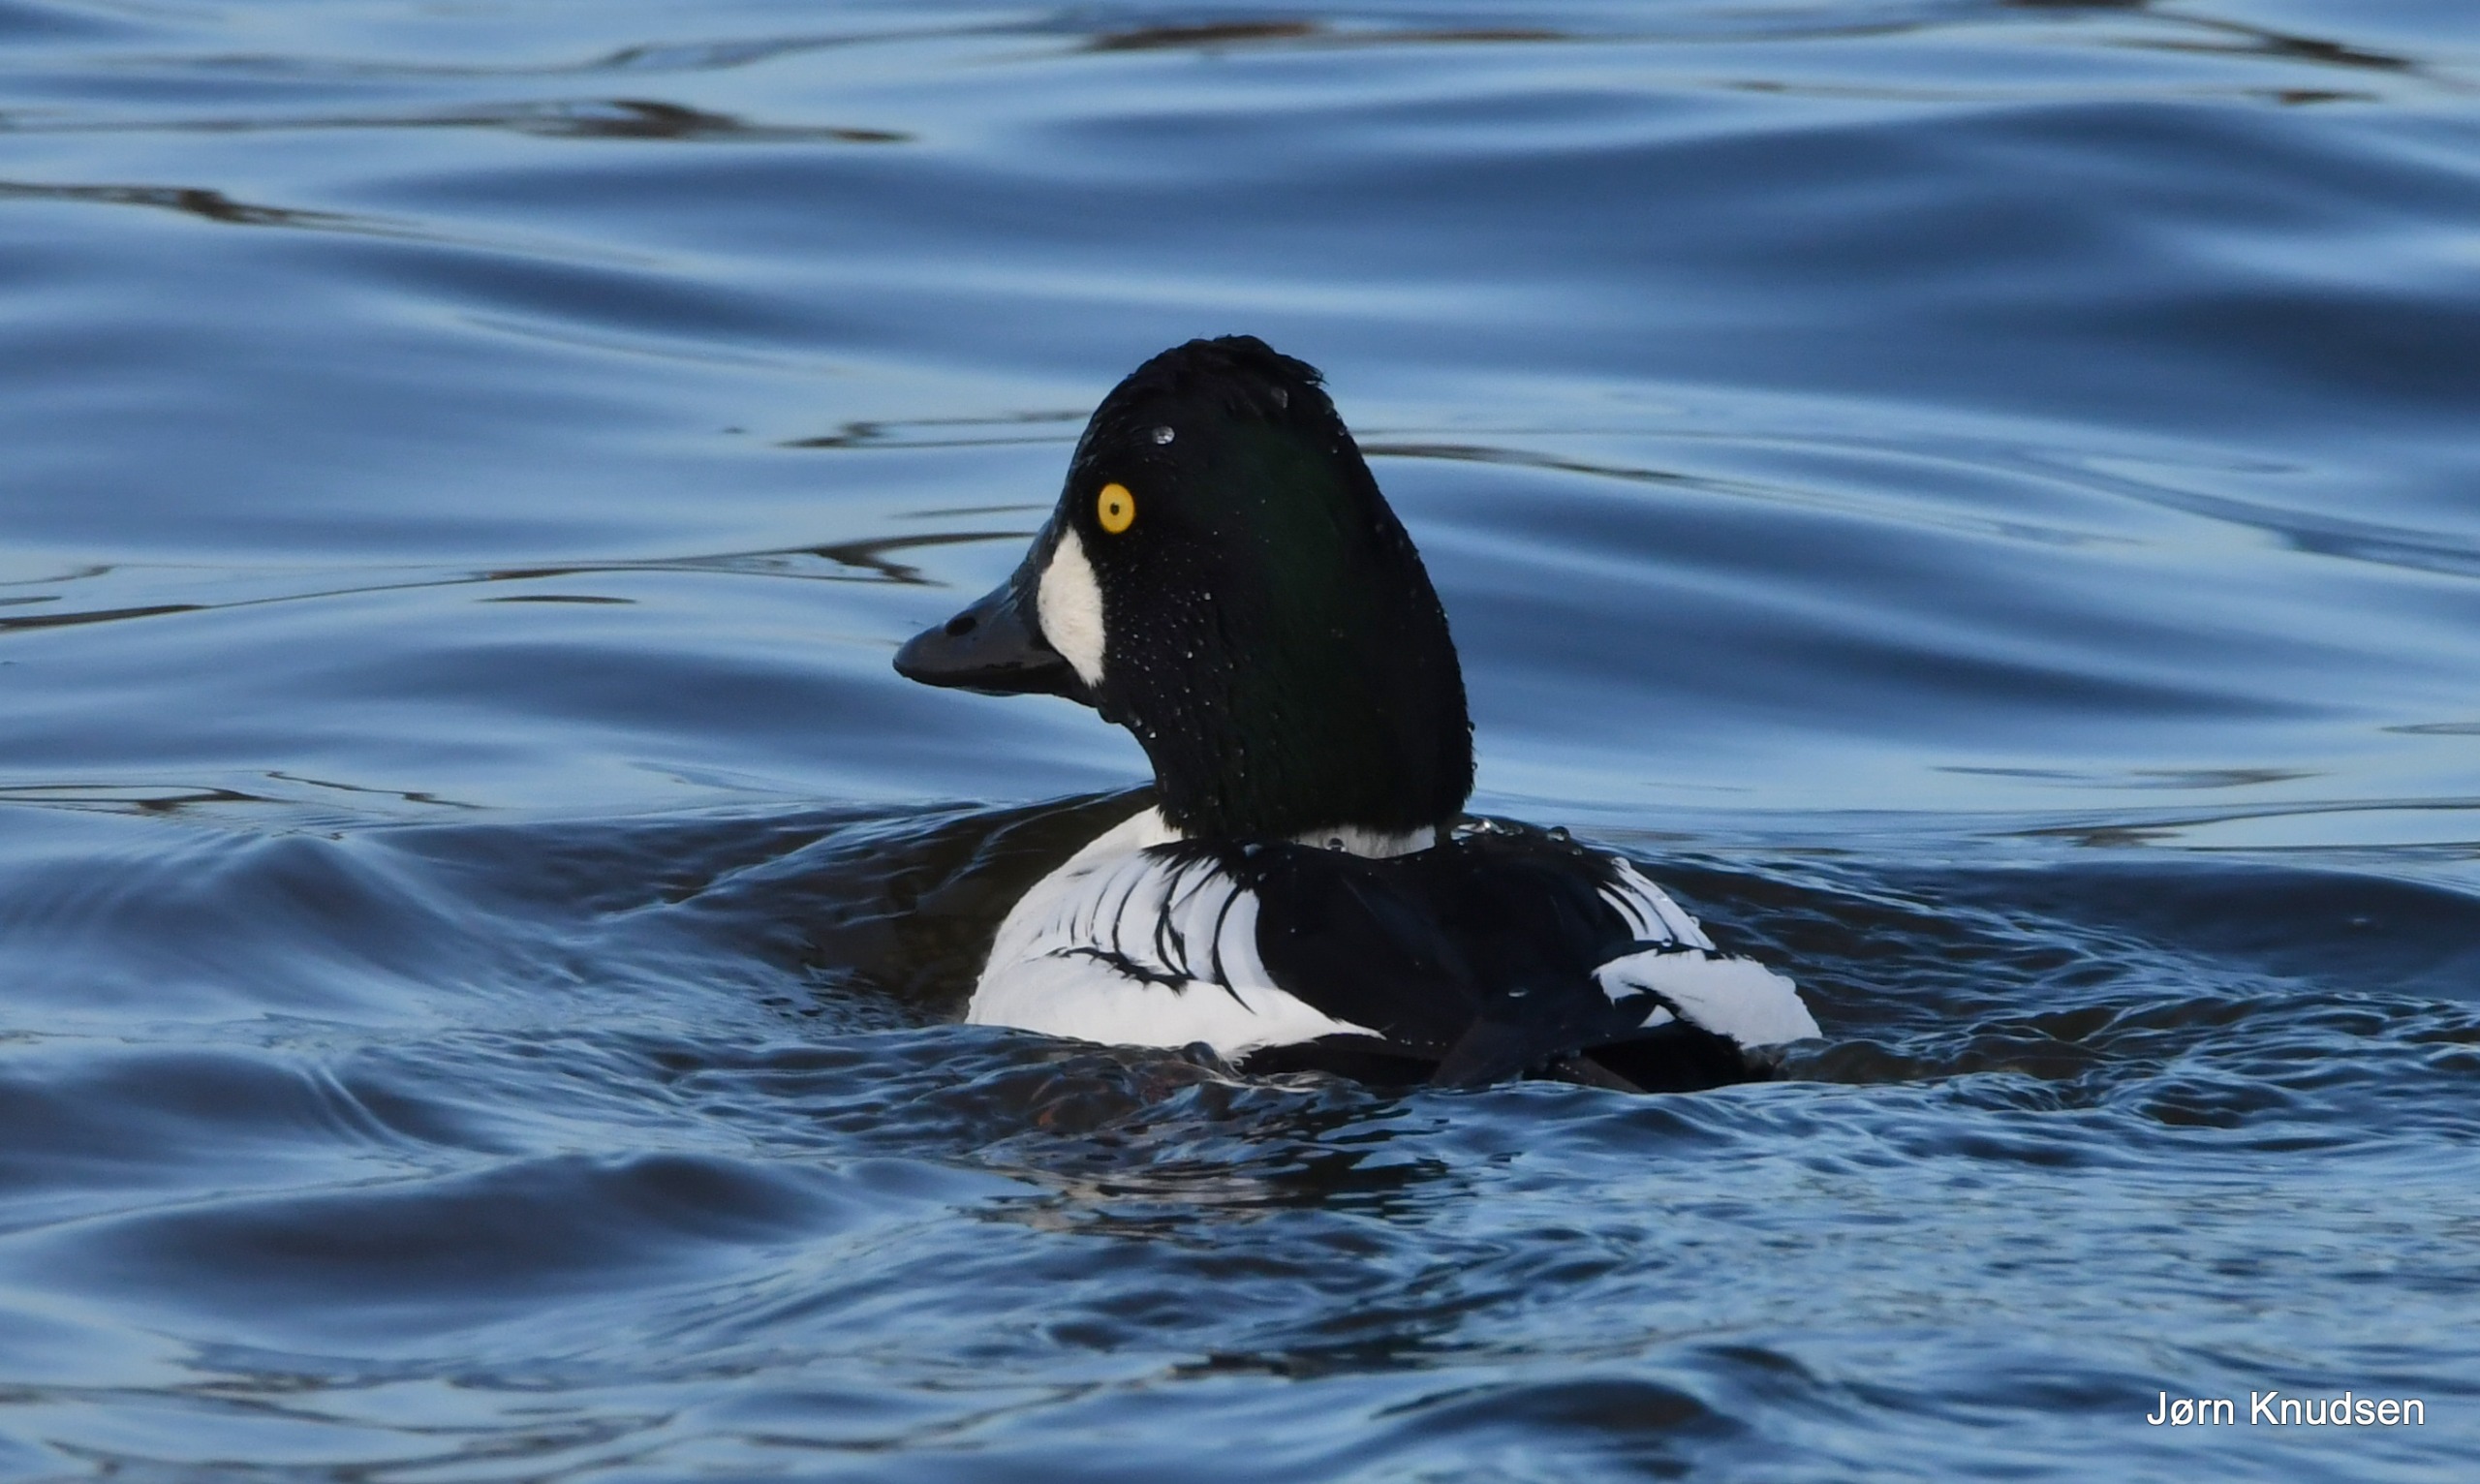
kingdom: Animalia
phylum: Chordata
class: Aves
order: Anseriformes
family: Anatidae
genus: Bucephala
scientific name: Bucephala clangula
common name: Hvinand
